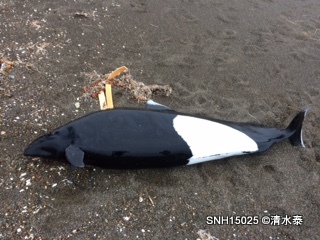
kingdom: Animalia
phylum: Chordata
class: Mammalia
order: Cetacea
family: Phocoenidae
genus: Phocoenoides
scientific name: Phocoenoides dalli
